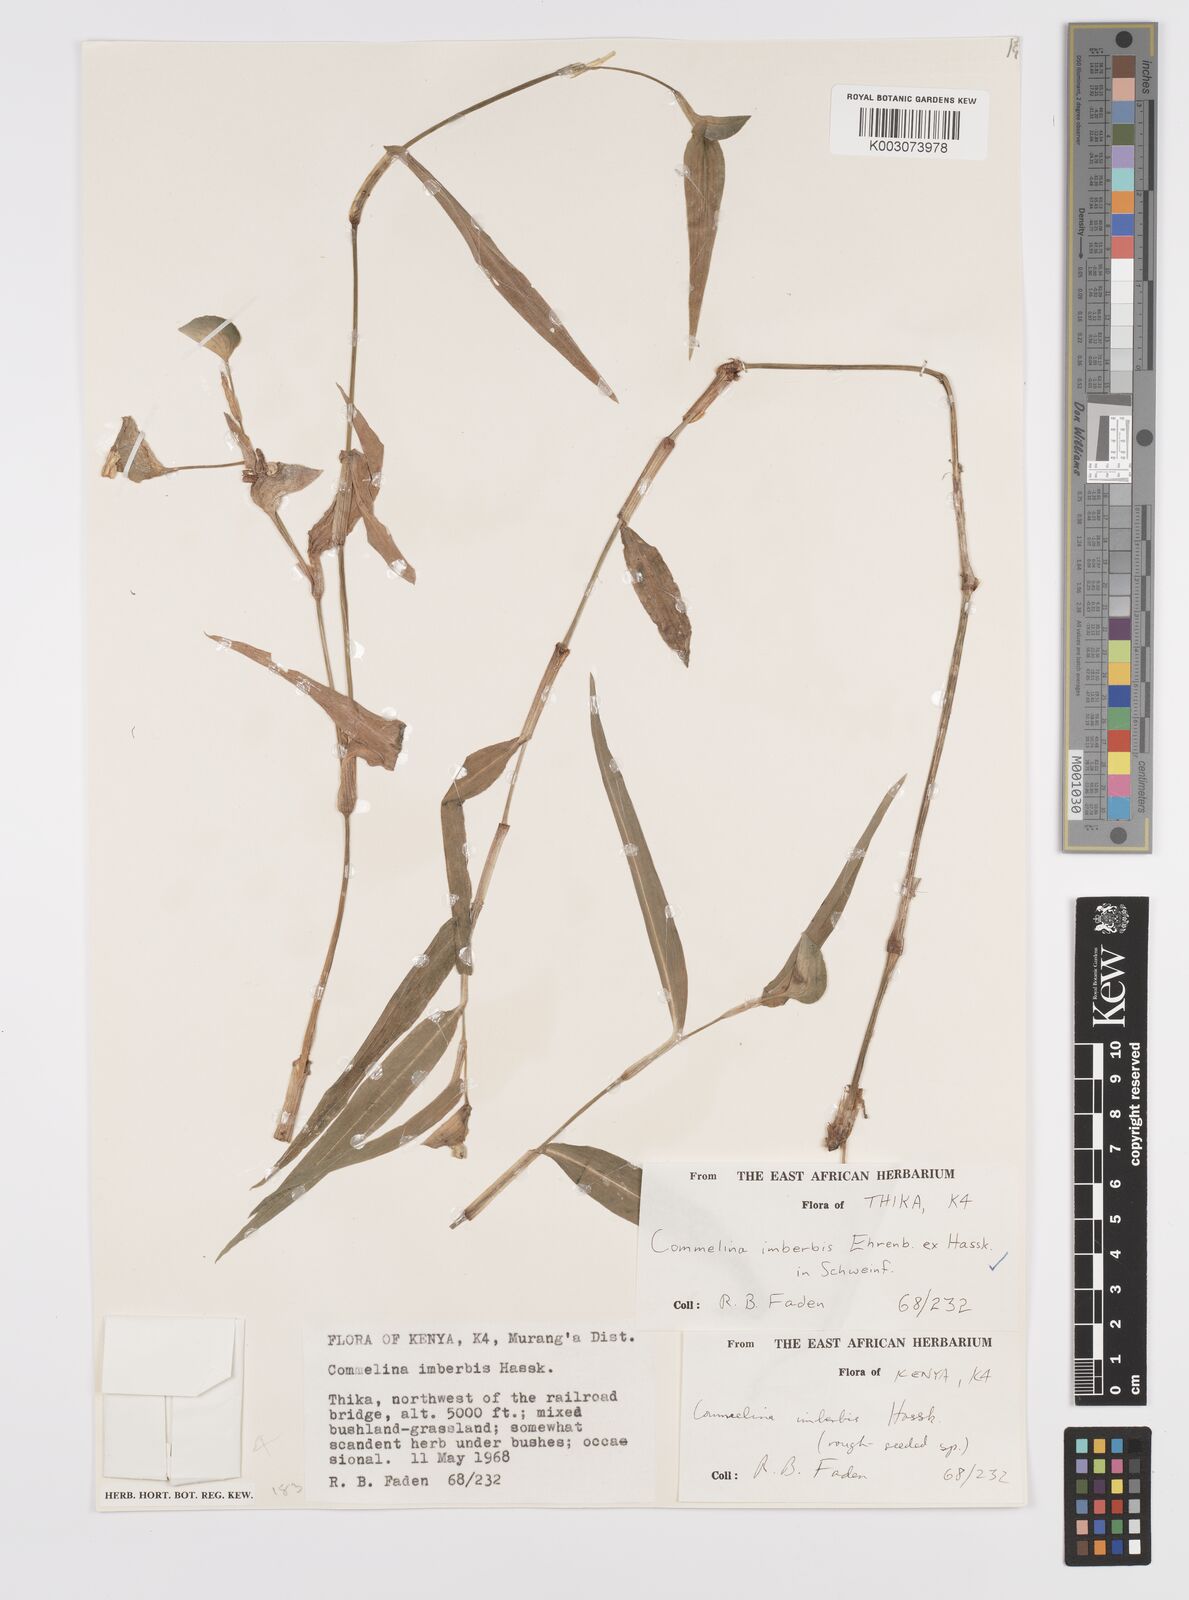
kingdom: Plantae
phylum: Tracheophyta
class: Liliopsida
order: Commelinales
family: Commelinaceae
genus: Commelina
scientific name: Commelina imberbis
